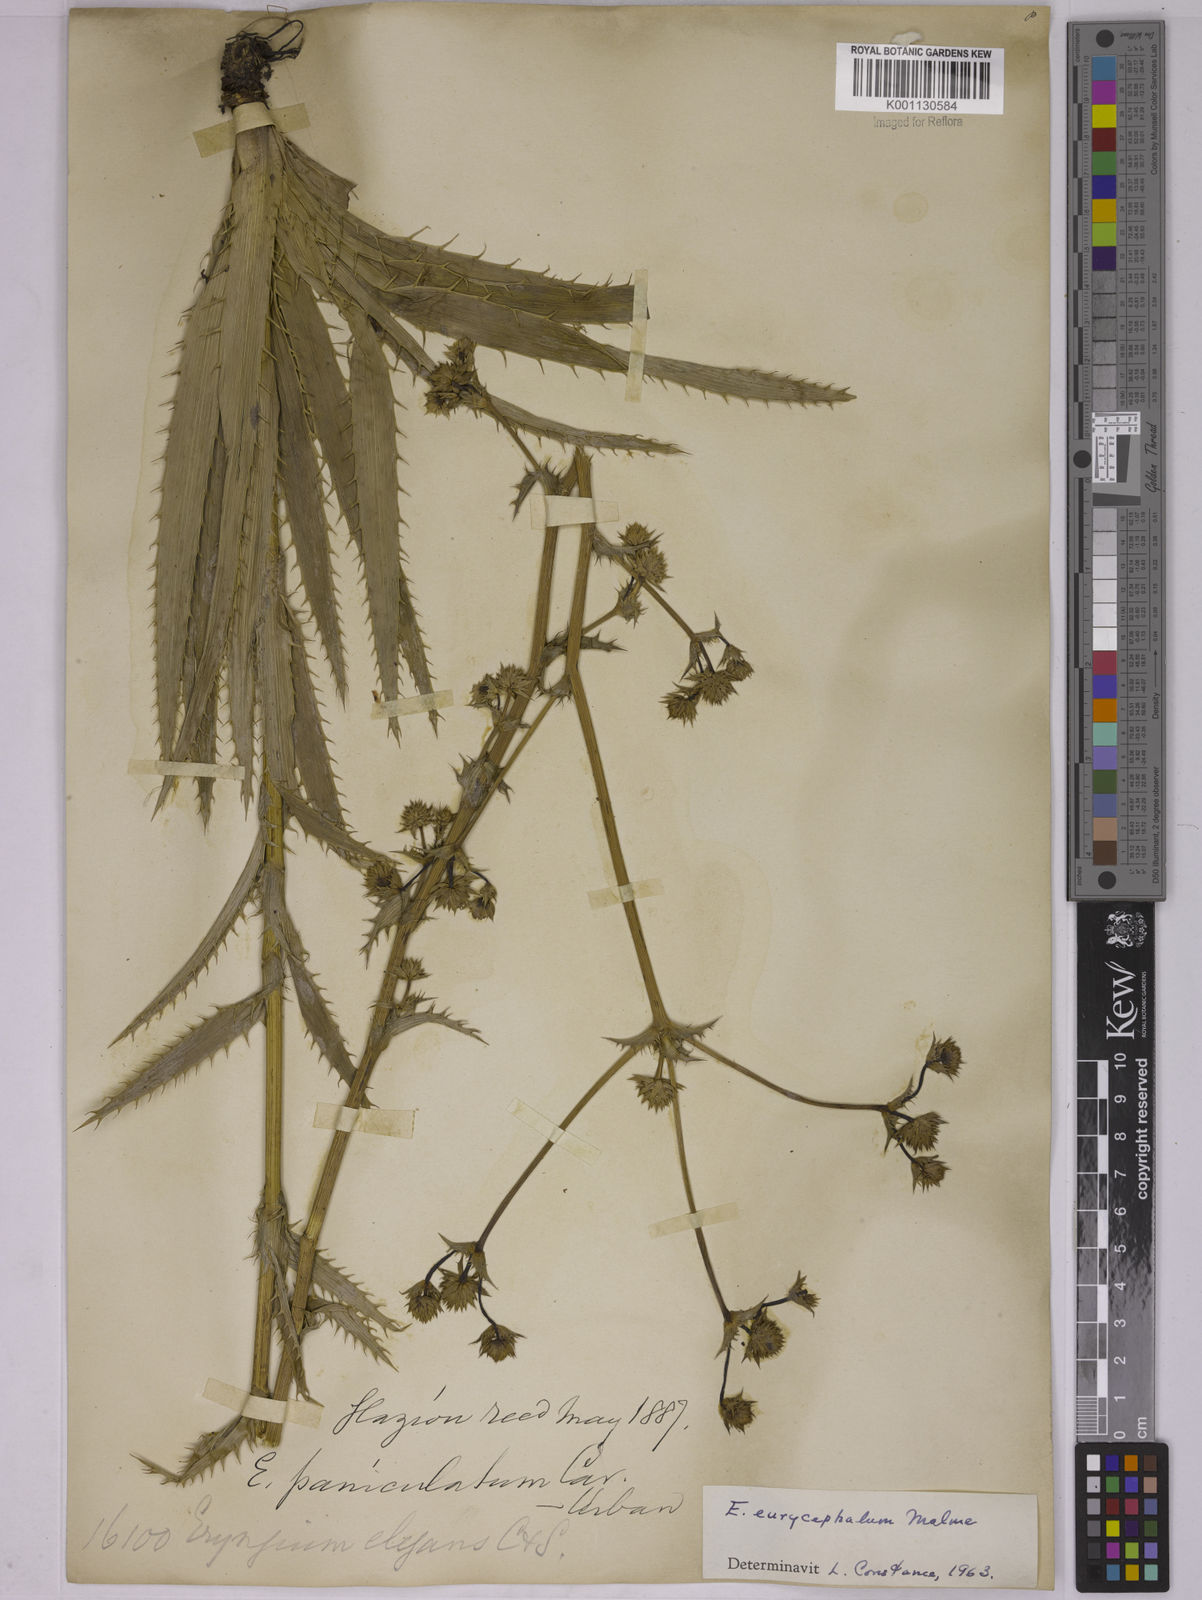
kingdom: Plantae
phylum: Tracheophyta
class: Magnoliopsida
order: Apiales
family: Apiaceae
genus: Eryngium
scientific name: Eryngium eurycephalum
